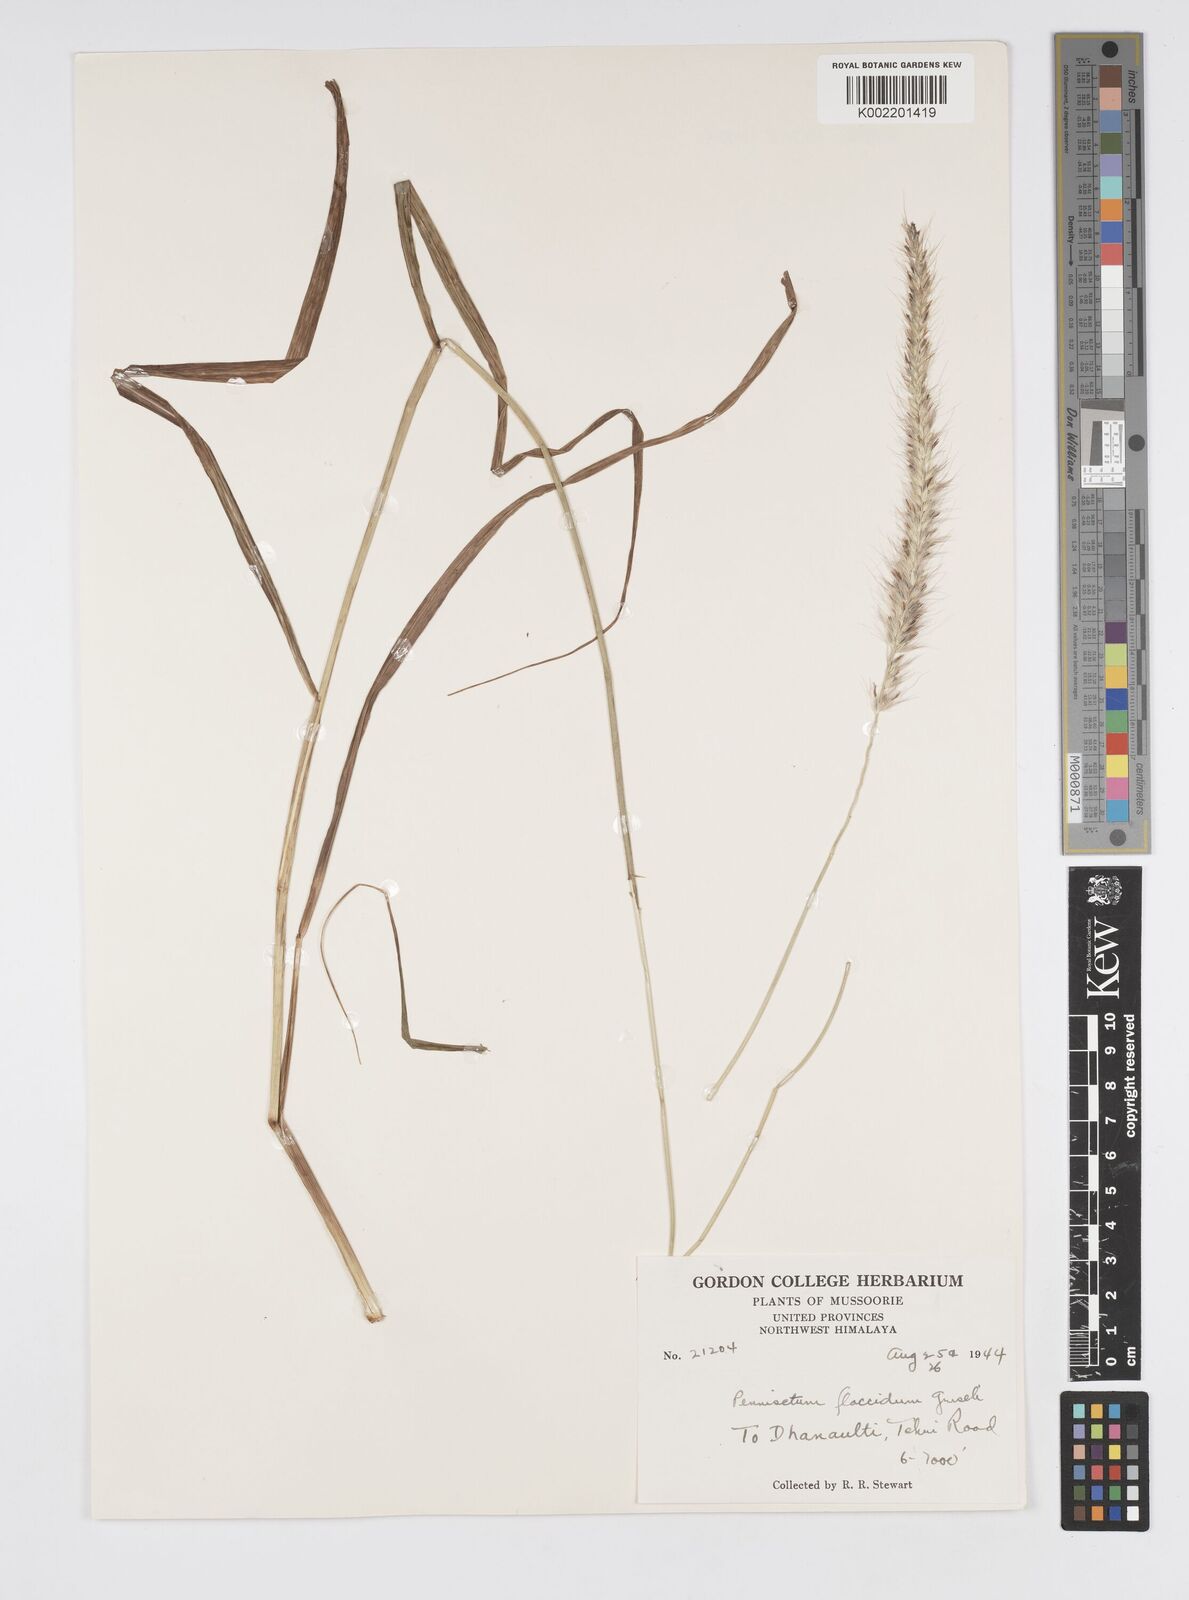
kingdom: Plantae
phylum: Tracheophyta
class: Liliopsida
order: Poales
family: Poaceae
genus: Cenchrus
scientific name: Cenchrus flaccidus
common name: Flaccid grass
